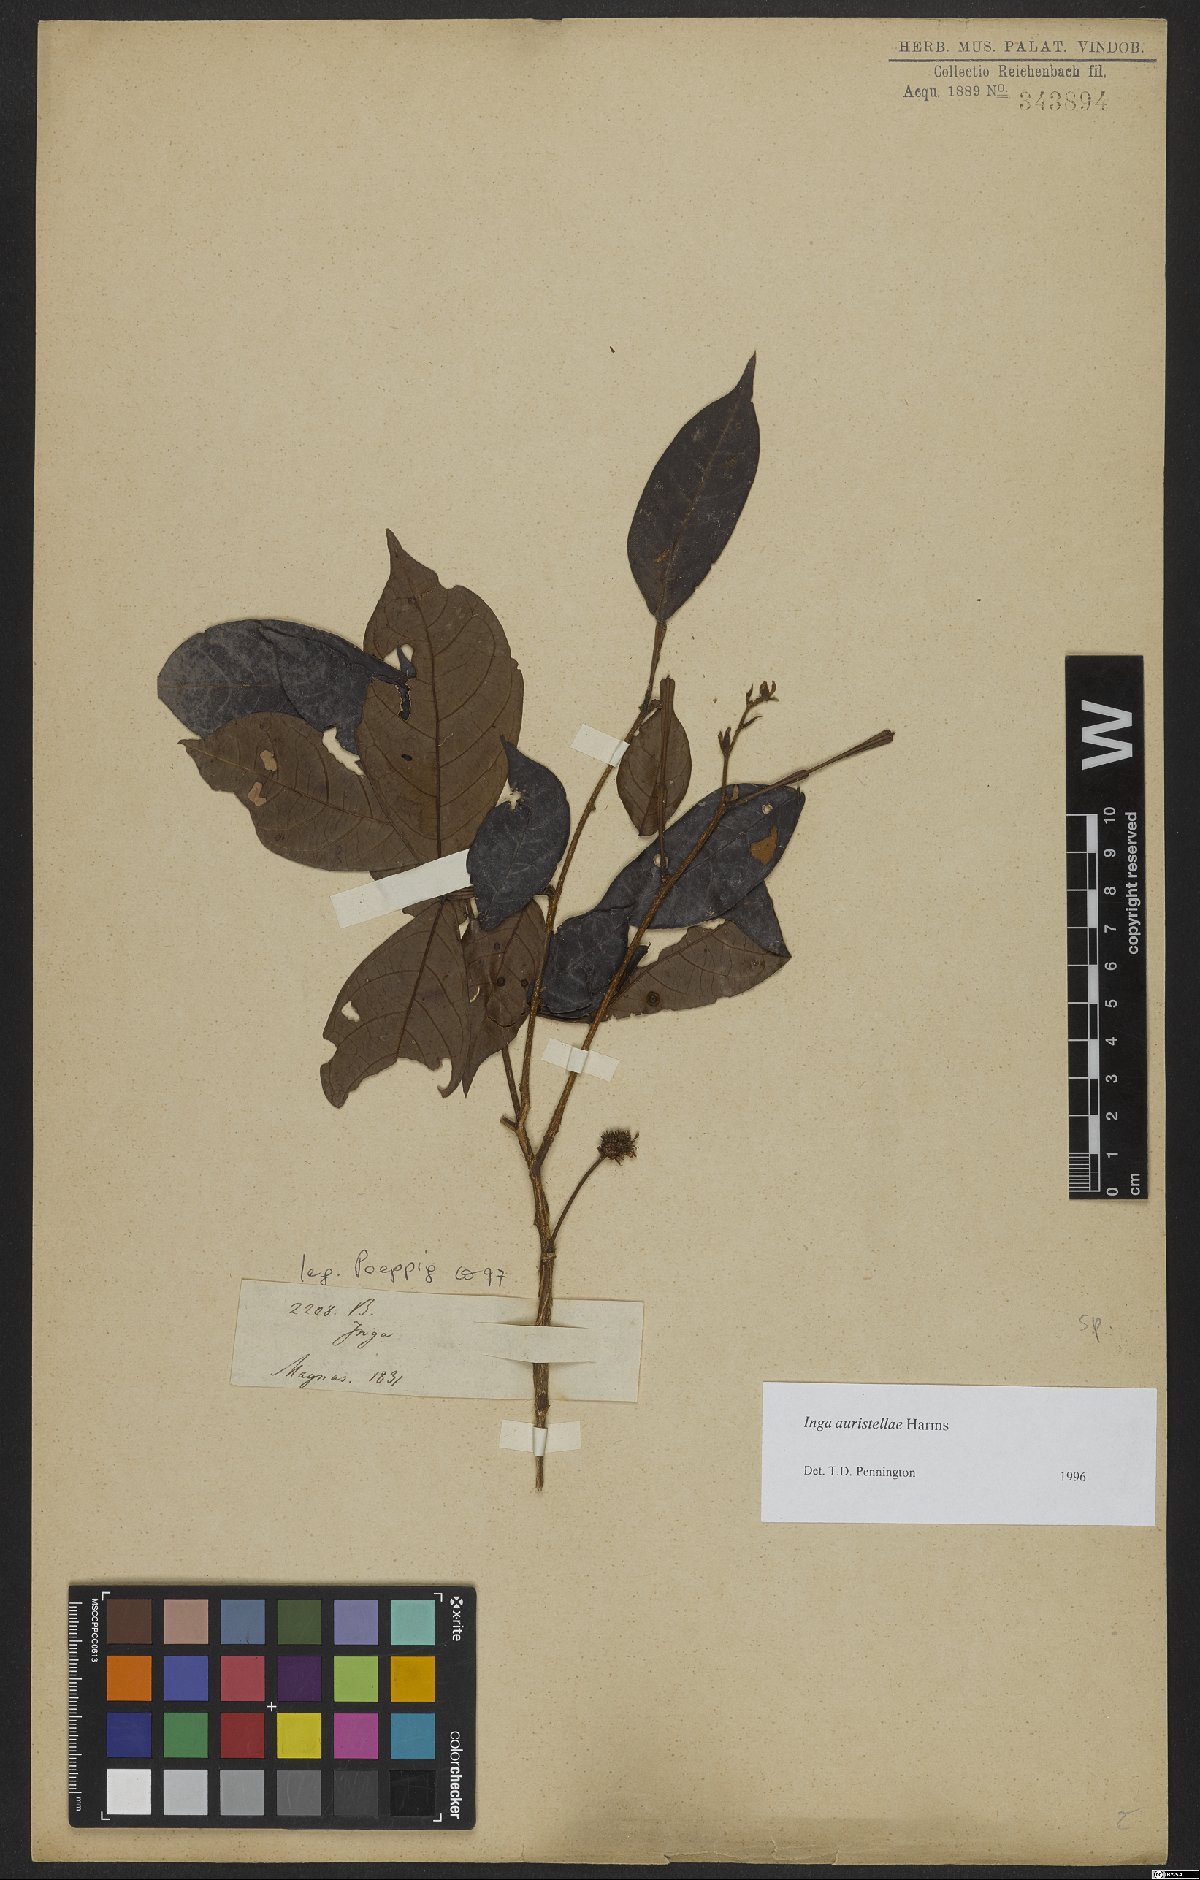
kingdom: Plantae
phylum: Tracheophyta
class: Magnoliopsida
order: Fabales
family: Fabaceae
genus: Inga
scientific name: Inga auristellae
